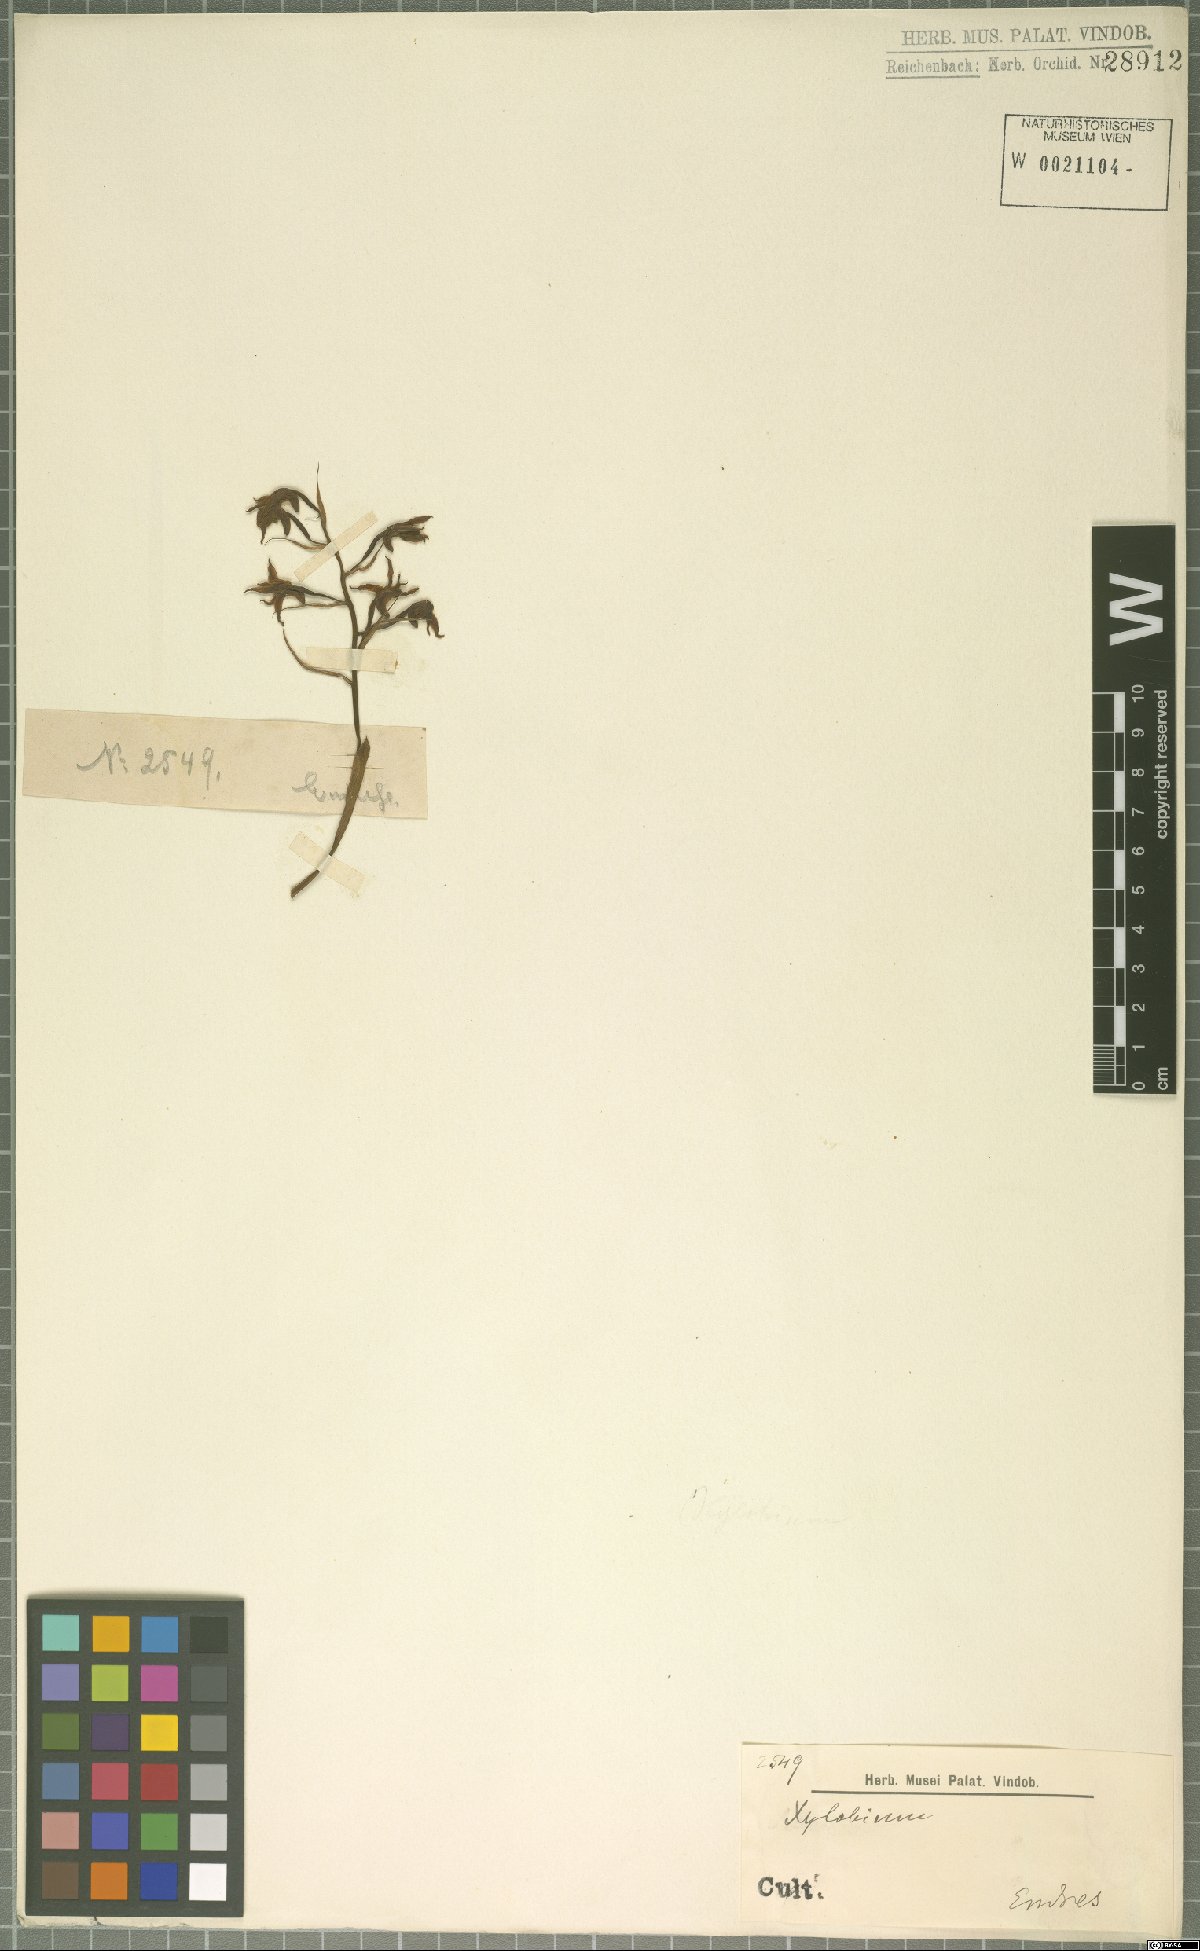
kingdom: Plantae
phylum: Tracheophyta
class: Liliopsida
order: Asparagales
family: Orchidaceae
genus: Xylobium
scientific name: Xylobium
